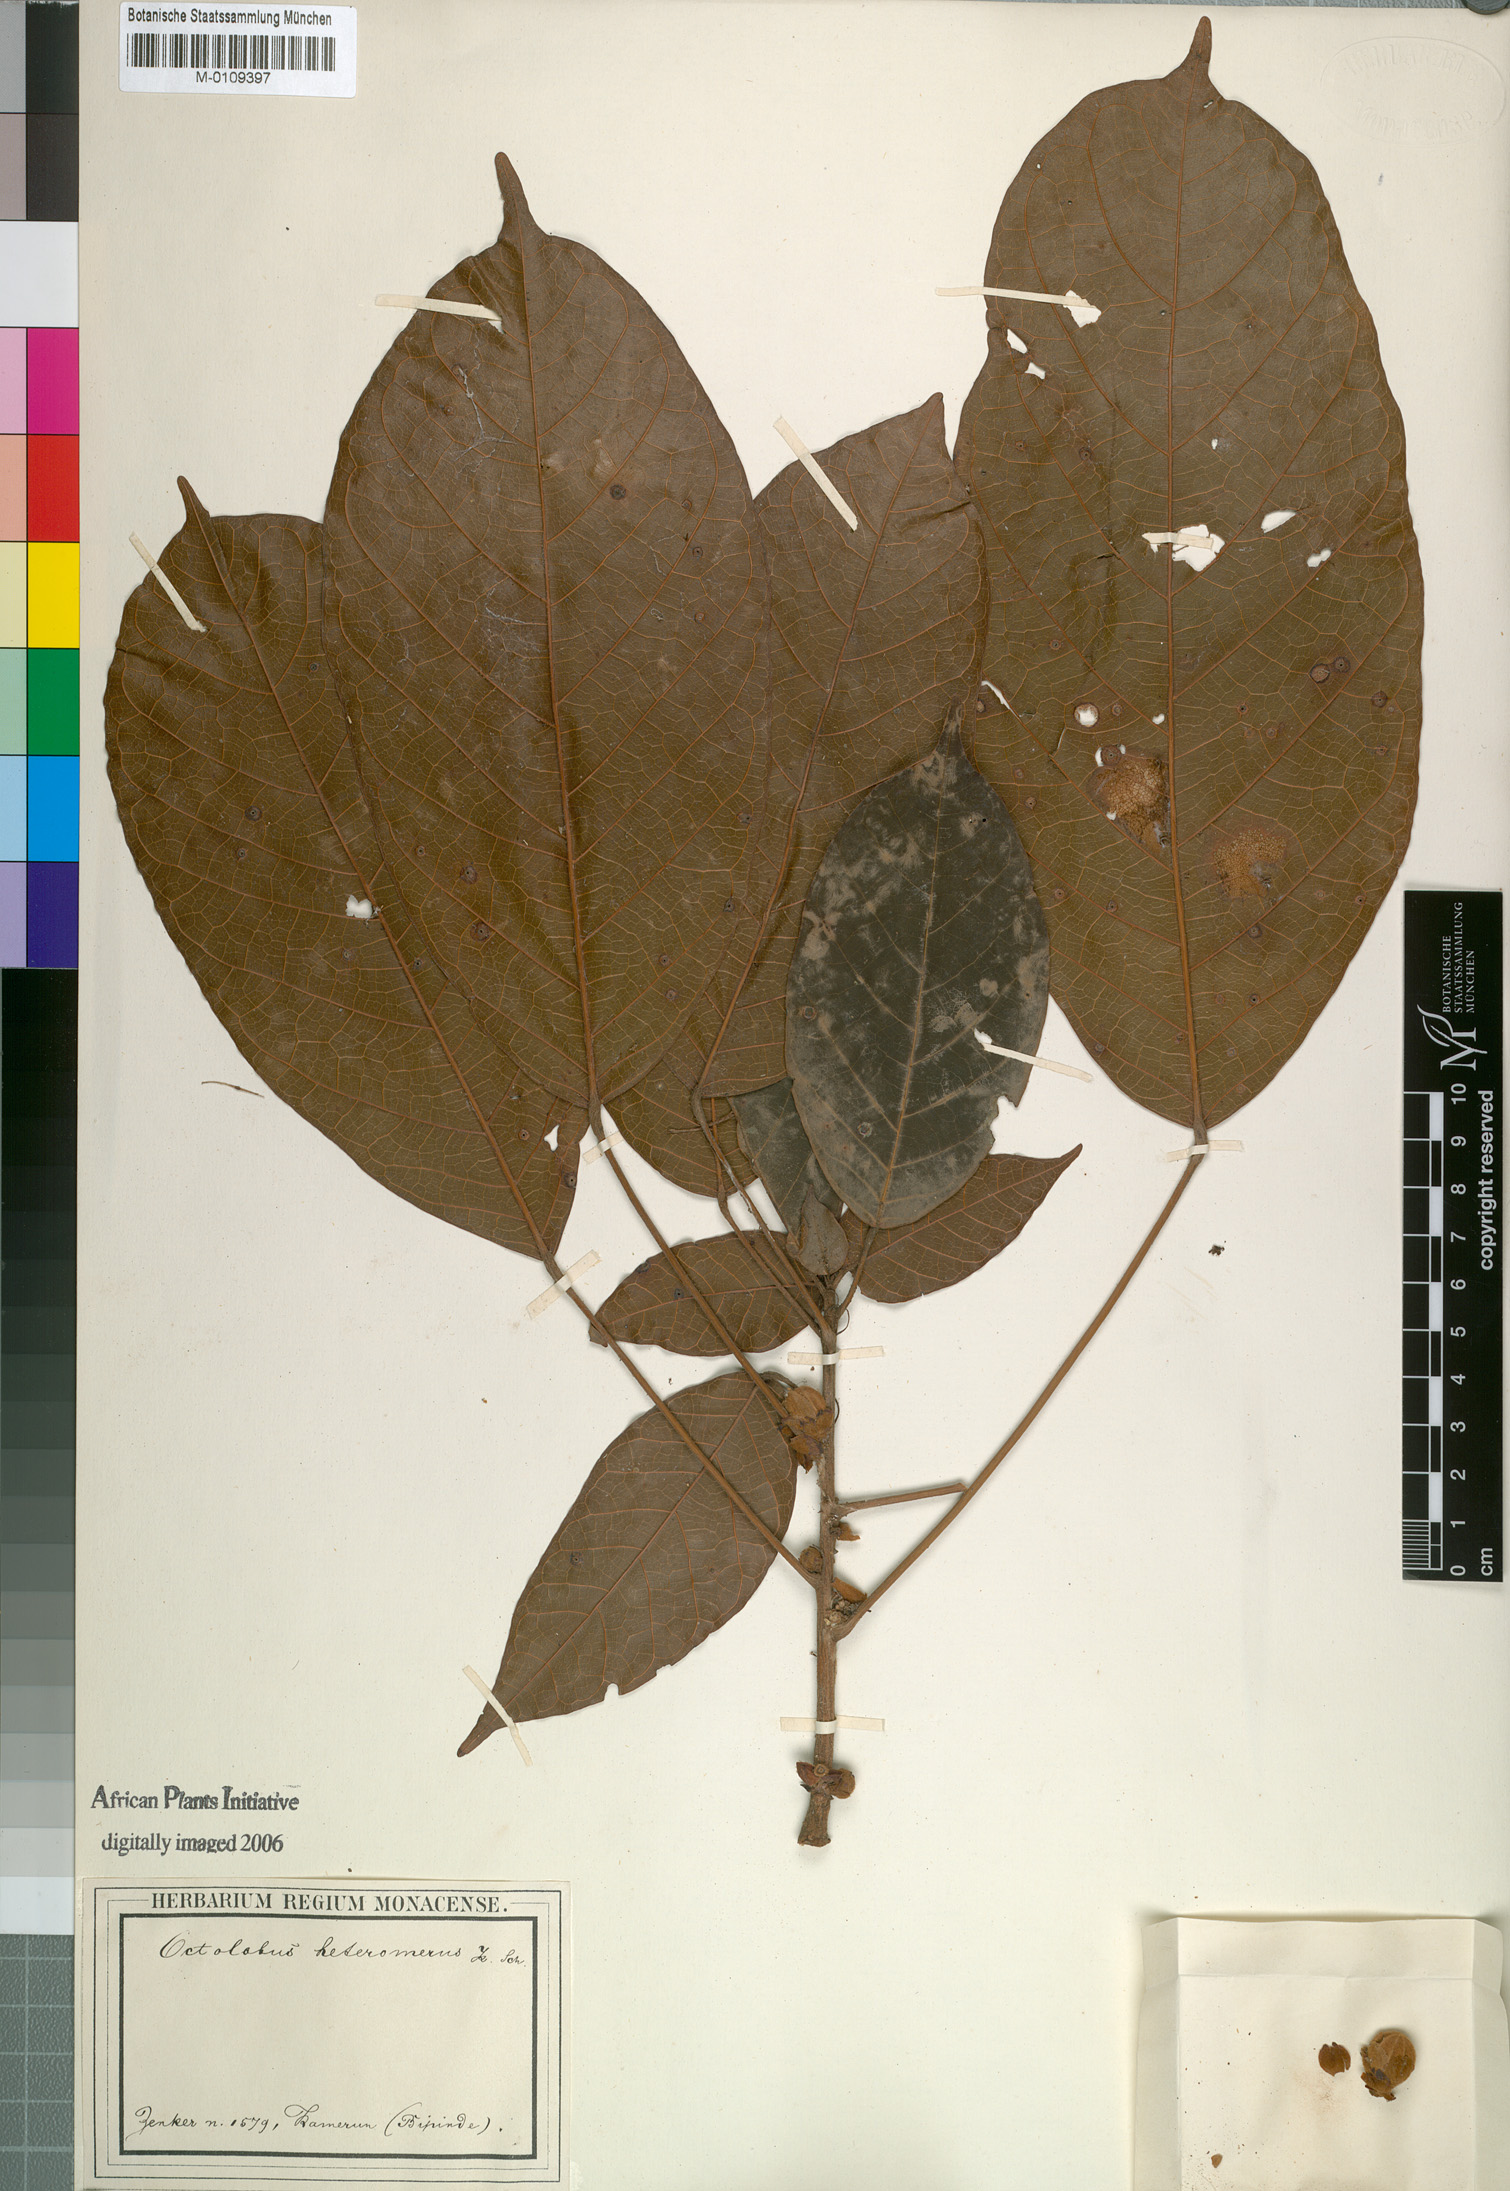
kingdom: Plantae
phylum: Tracheophyta
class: Magnoliopsida
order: Malvales
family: Malvaceae
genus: Octolobus
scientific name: Octolobus heteromerus
